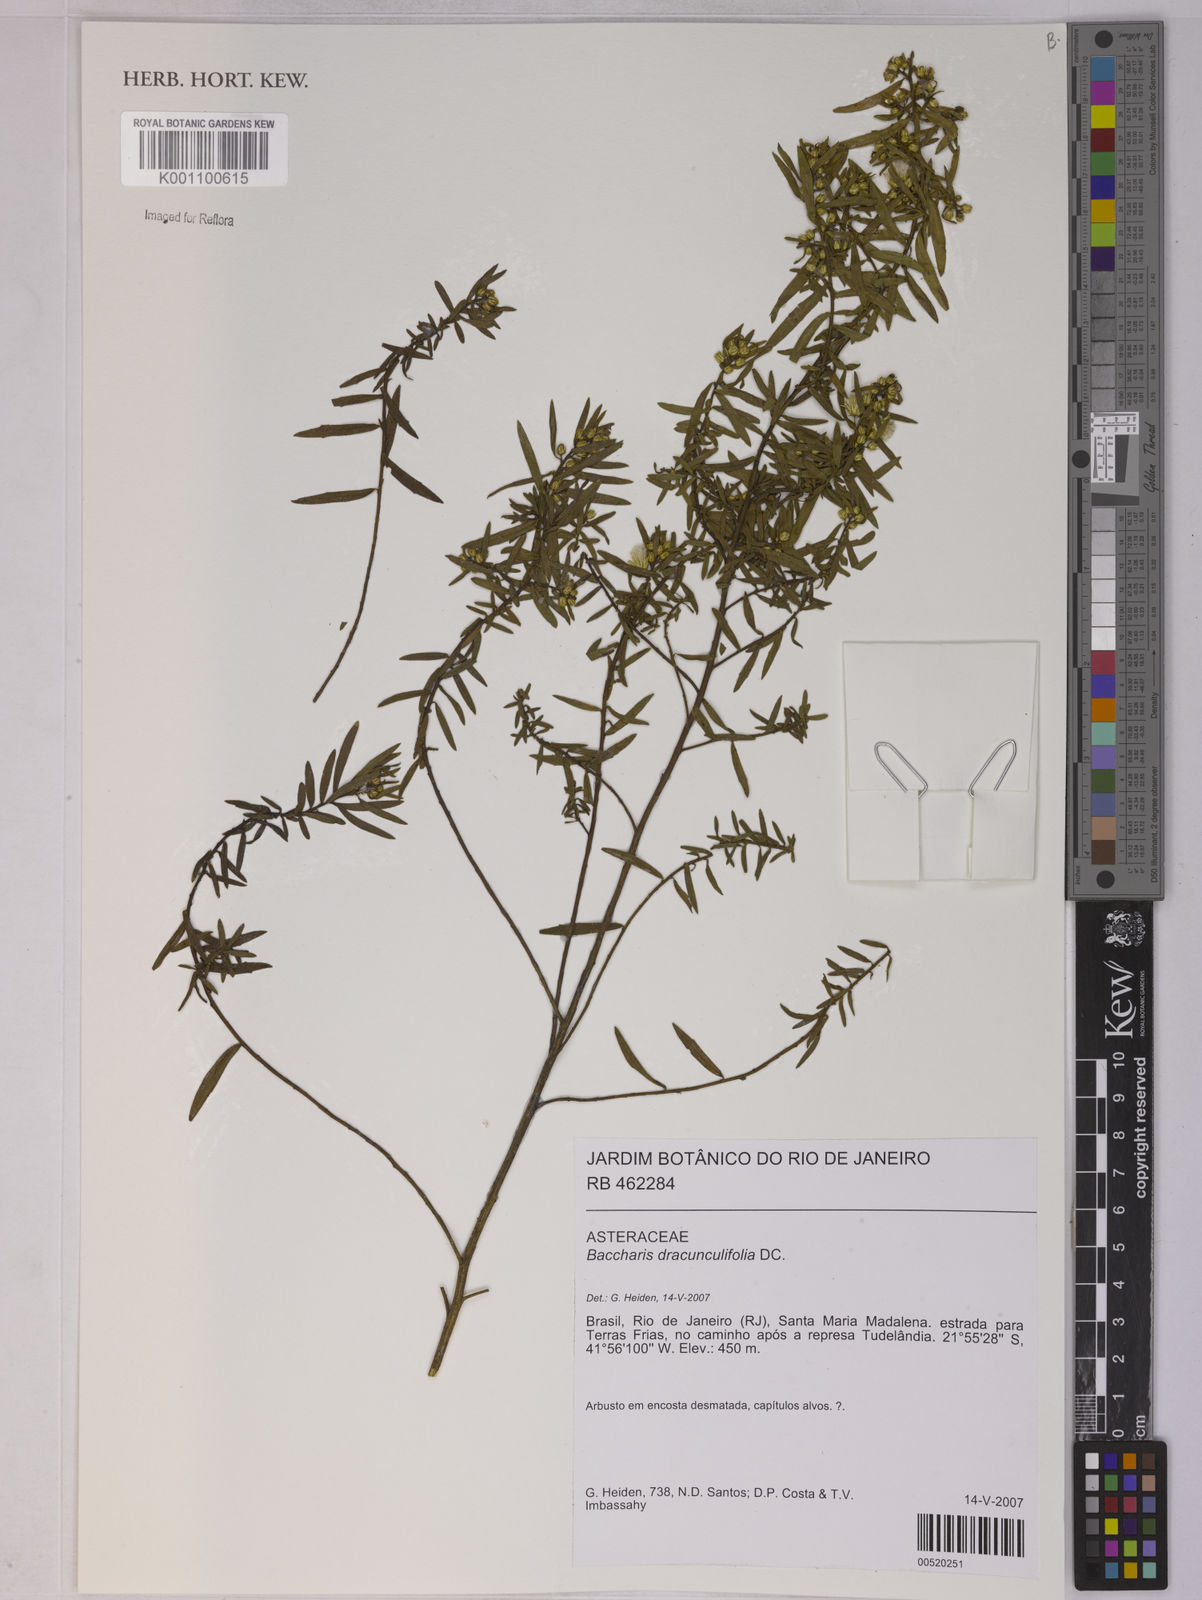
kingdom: Plantae
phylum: Tracheophyta
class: Magnoliopsida
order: Asterales
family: Asteraceae
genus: Baccharis
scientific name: Baccharis dracunculifolia
